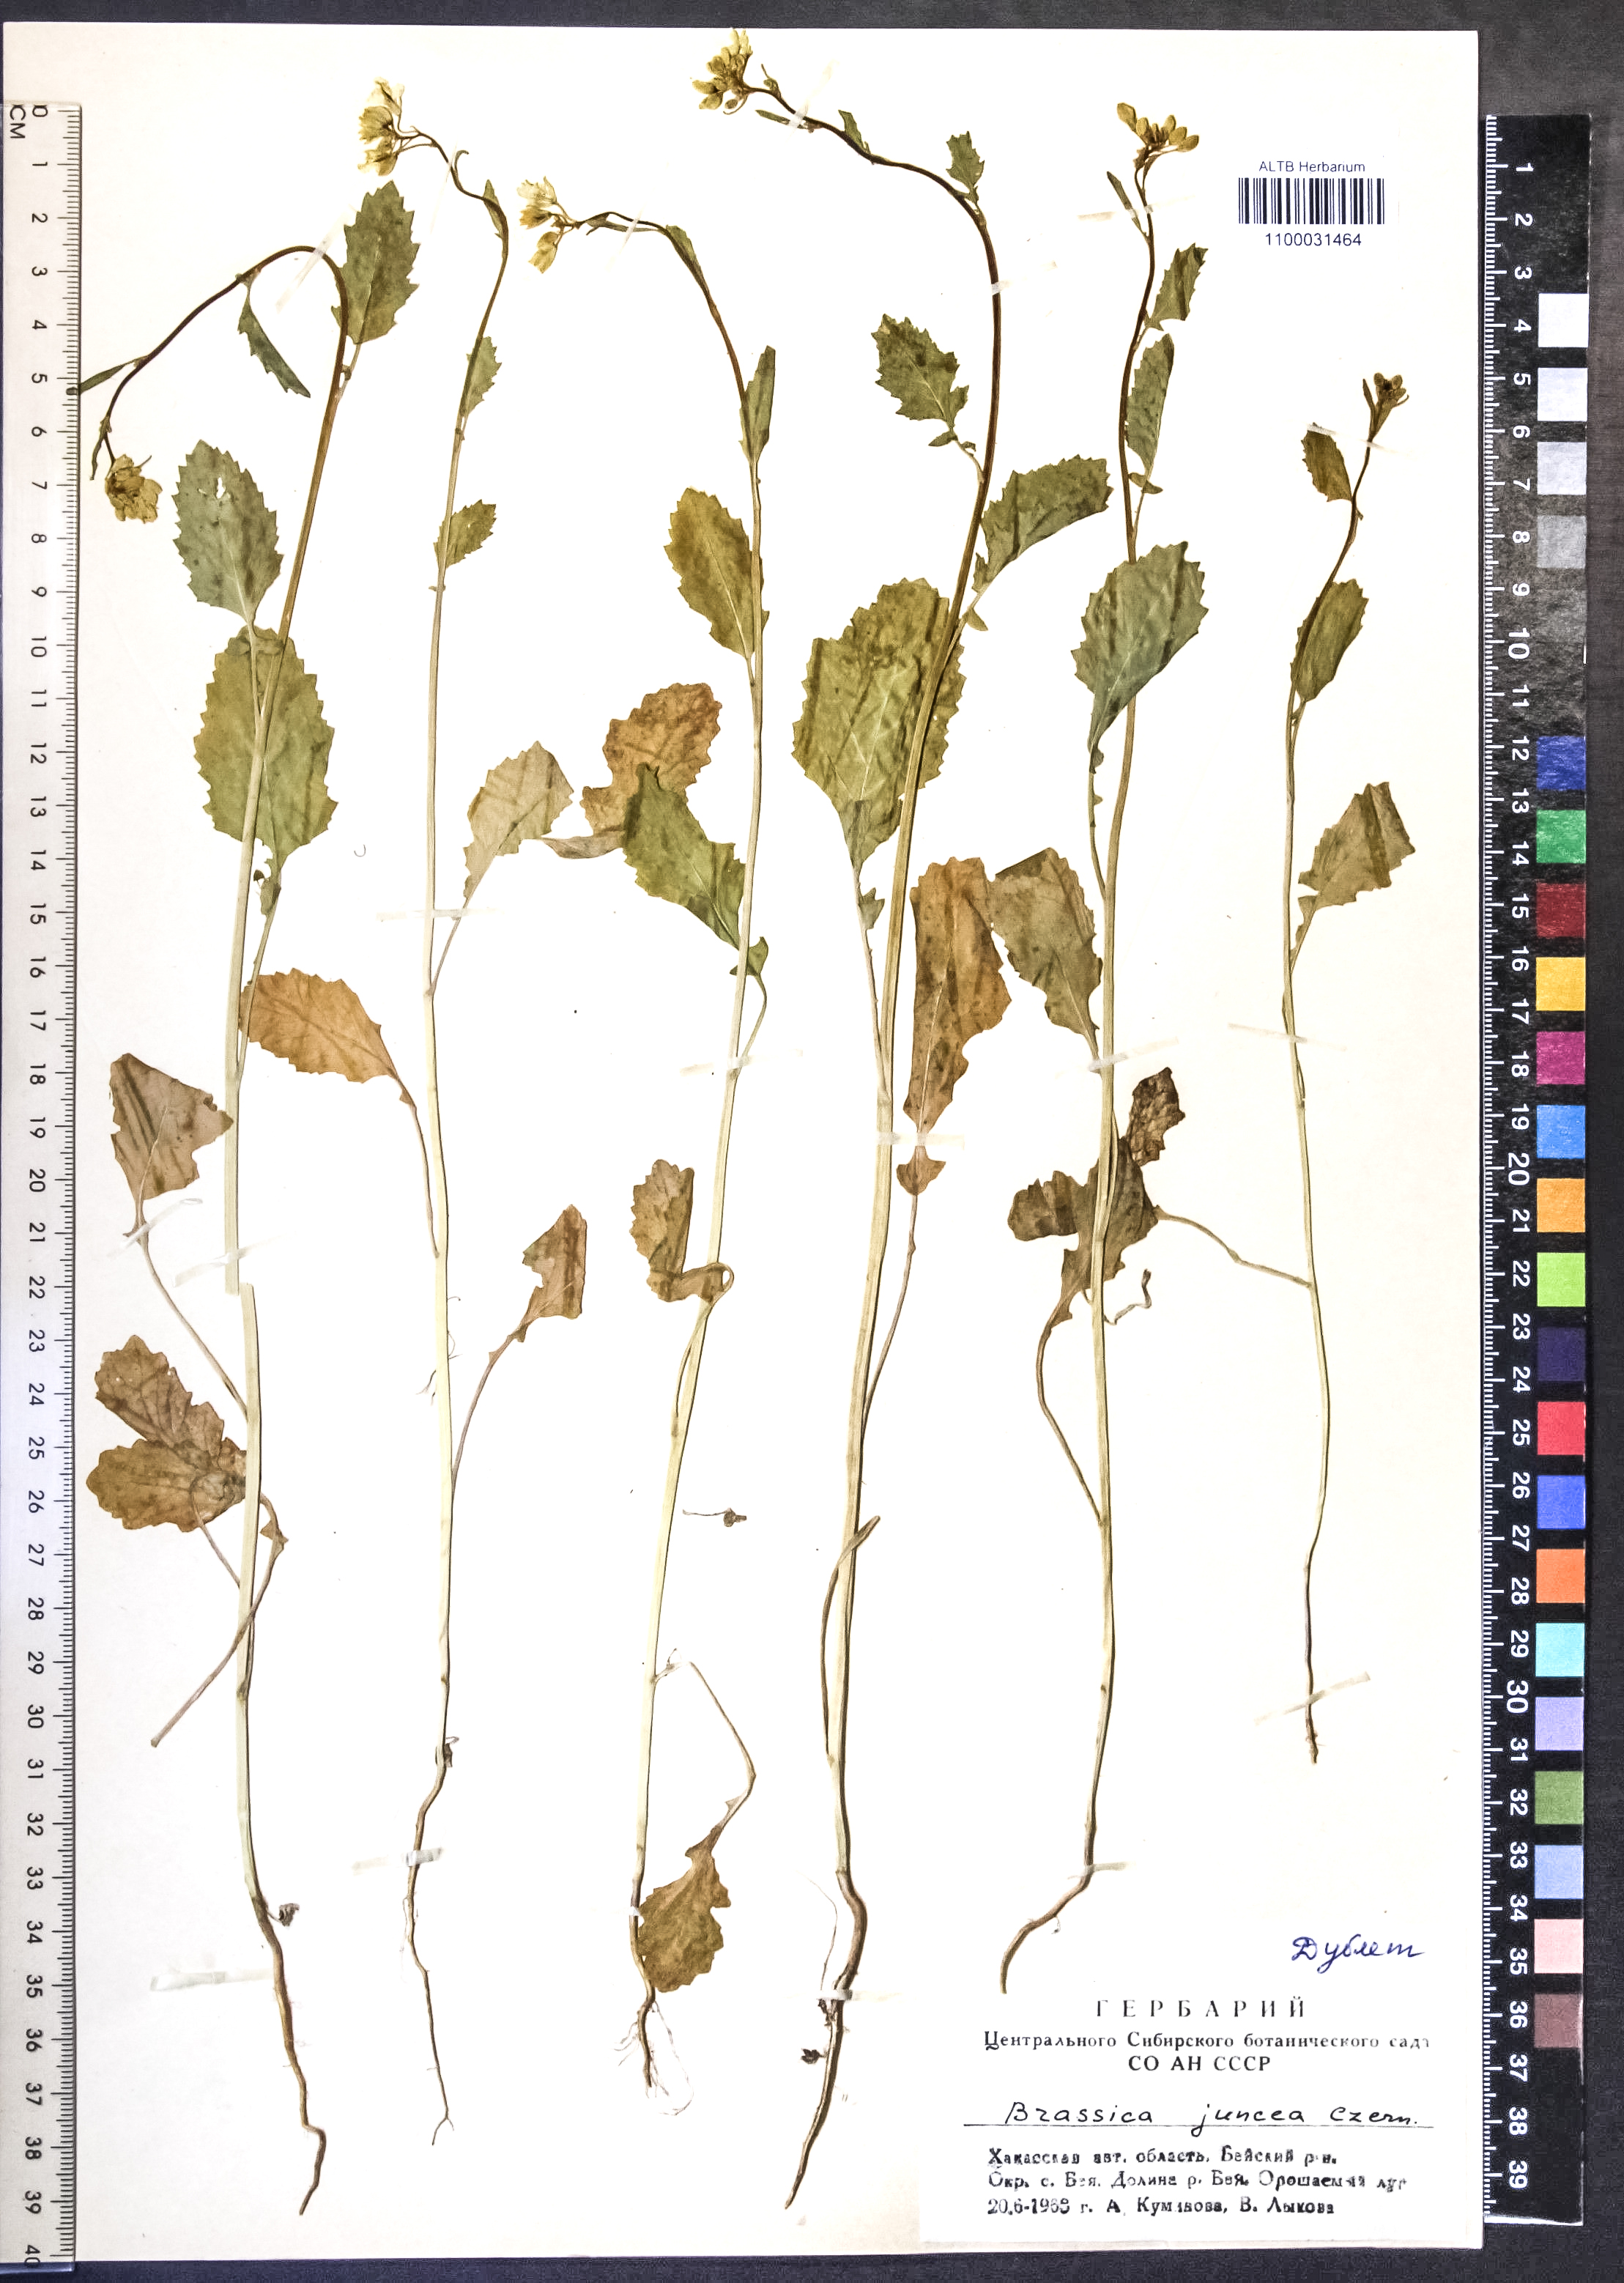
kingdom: Plantae
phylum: Tracheophyta
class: Magnoliopsida
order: Brassicales
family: Brassicaceae
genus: Brassica
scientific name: Brassica juncea
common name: Brown mustard
